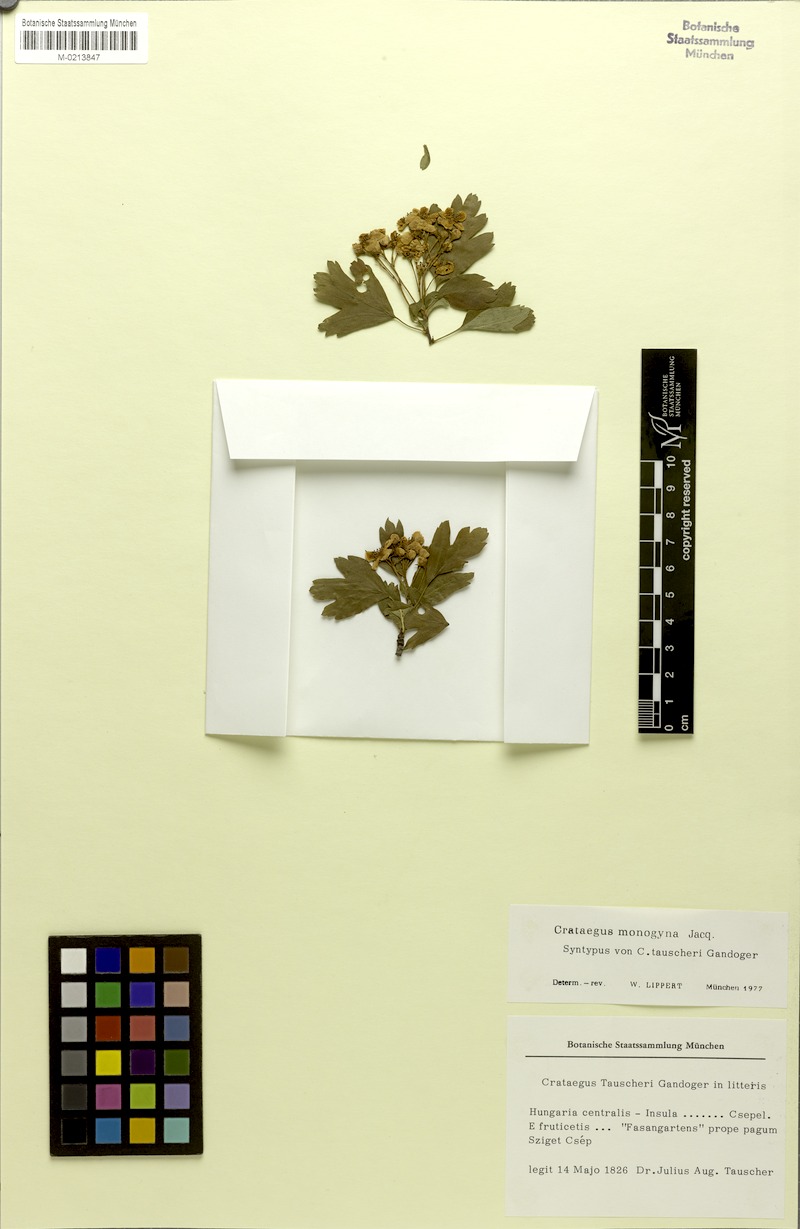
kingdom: Plantae
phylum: Tracheophyta
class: Magnoliopsida
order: Rosales
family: Rosaceae
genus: Crataegus
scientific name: Crataegus monogyna
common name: Hawthorn
